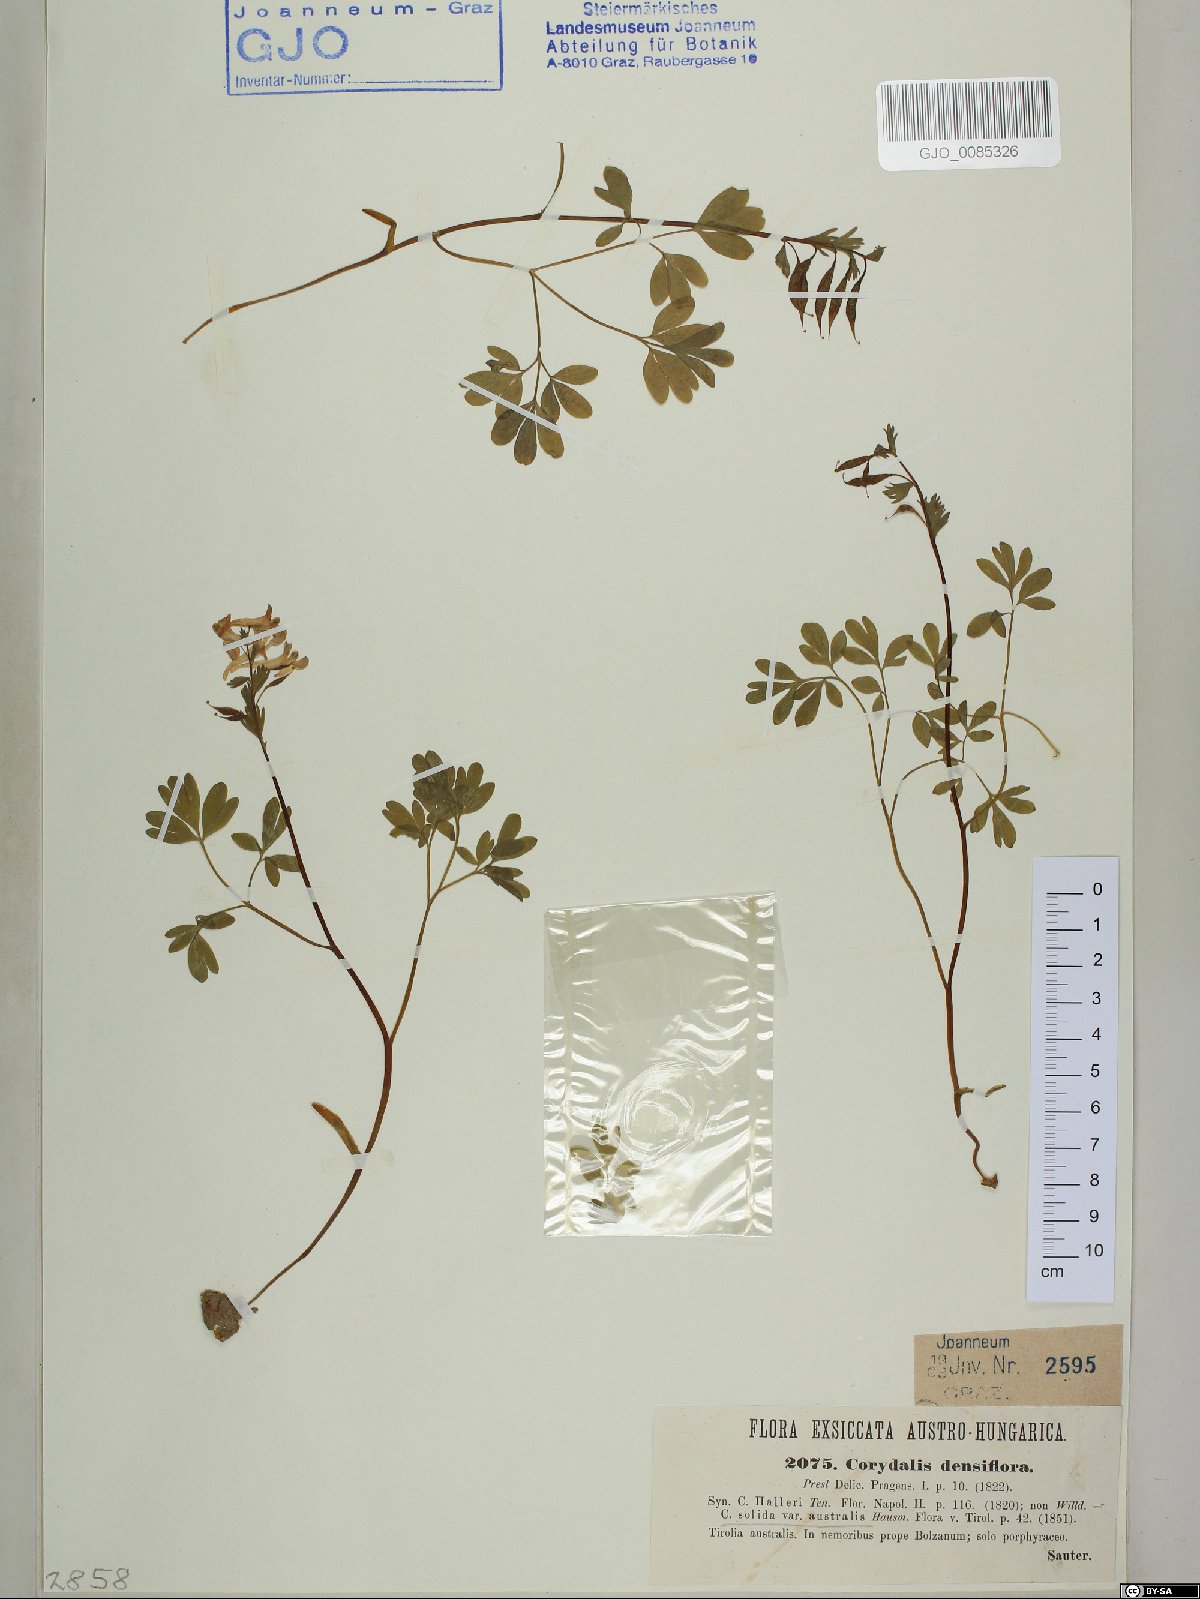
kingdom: Plantae
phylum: Tracheophyta
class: Magnoliopsida
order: Ranunculales
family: Papaveraceae
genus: Corydalis
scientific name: Corydalis densiflora
